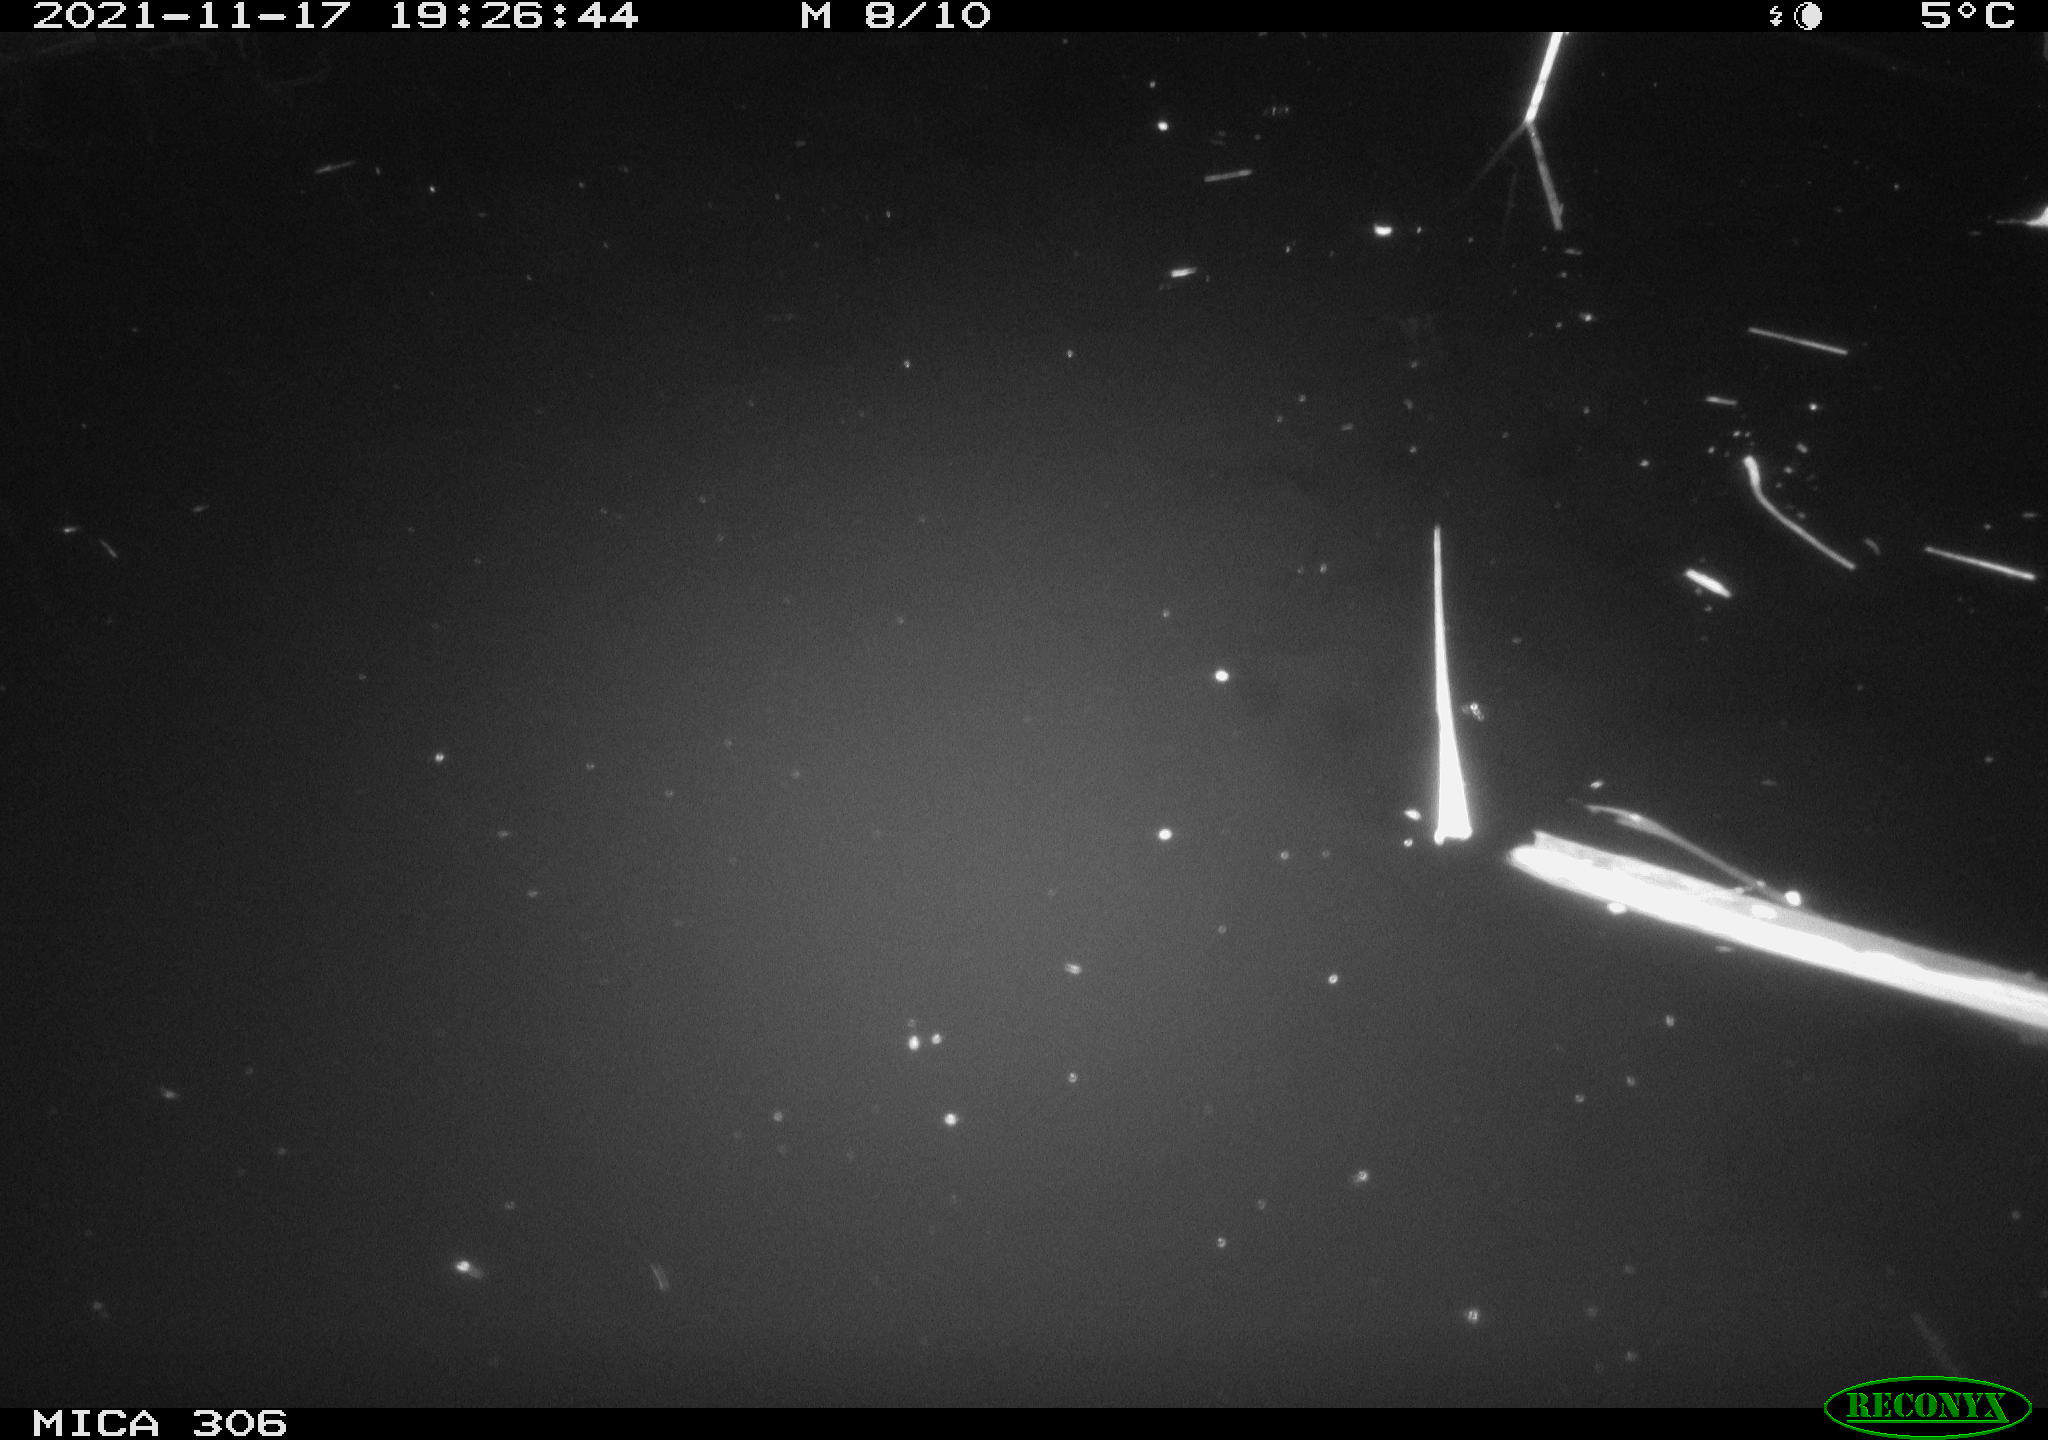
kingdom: Animalia
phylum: Chordata
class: Mammalia
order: Rodentia
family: Muridae
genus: Rattus
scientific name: Rattus norvegicus
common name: Brown rat
